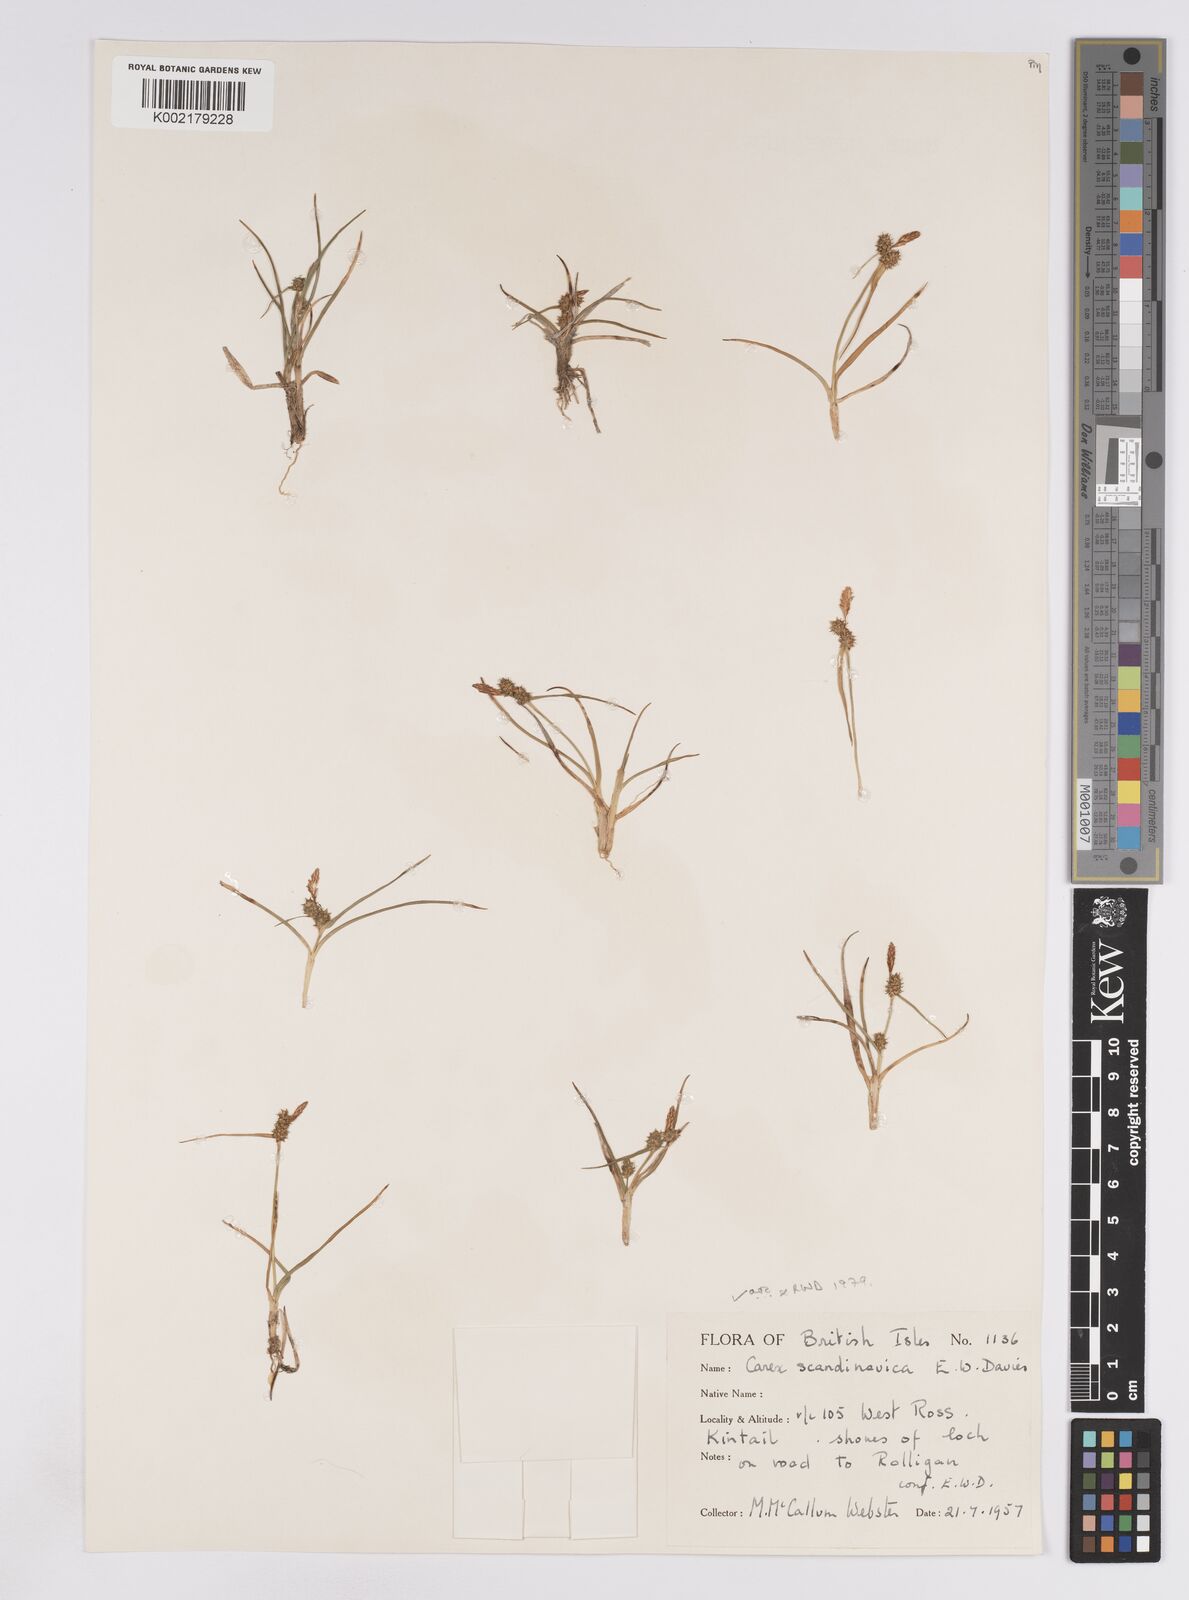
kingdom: Plantae
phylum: Tracheophyta
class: Liliopsida
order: Poales
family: Cyperaceae
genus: Carex
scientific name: Carex oederi
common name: Common & small-fruited yellow-sedge
